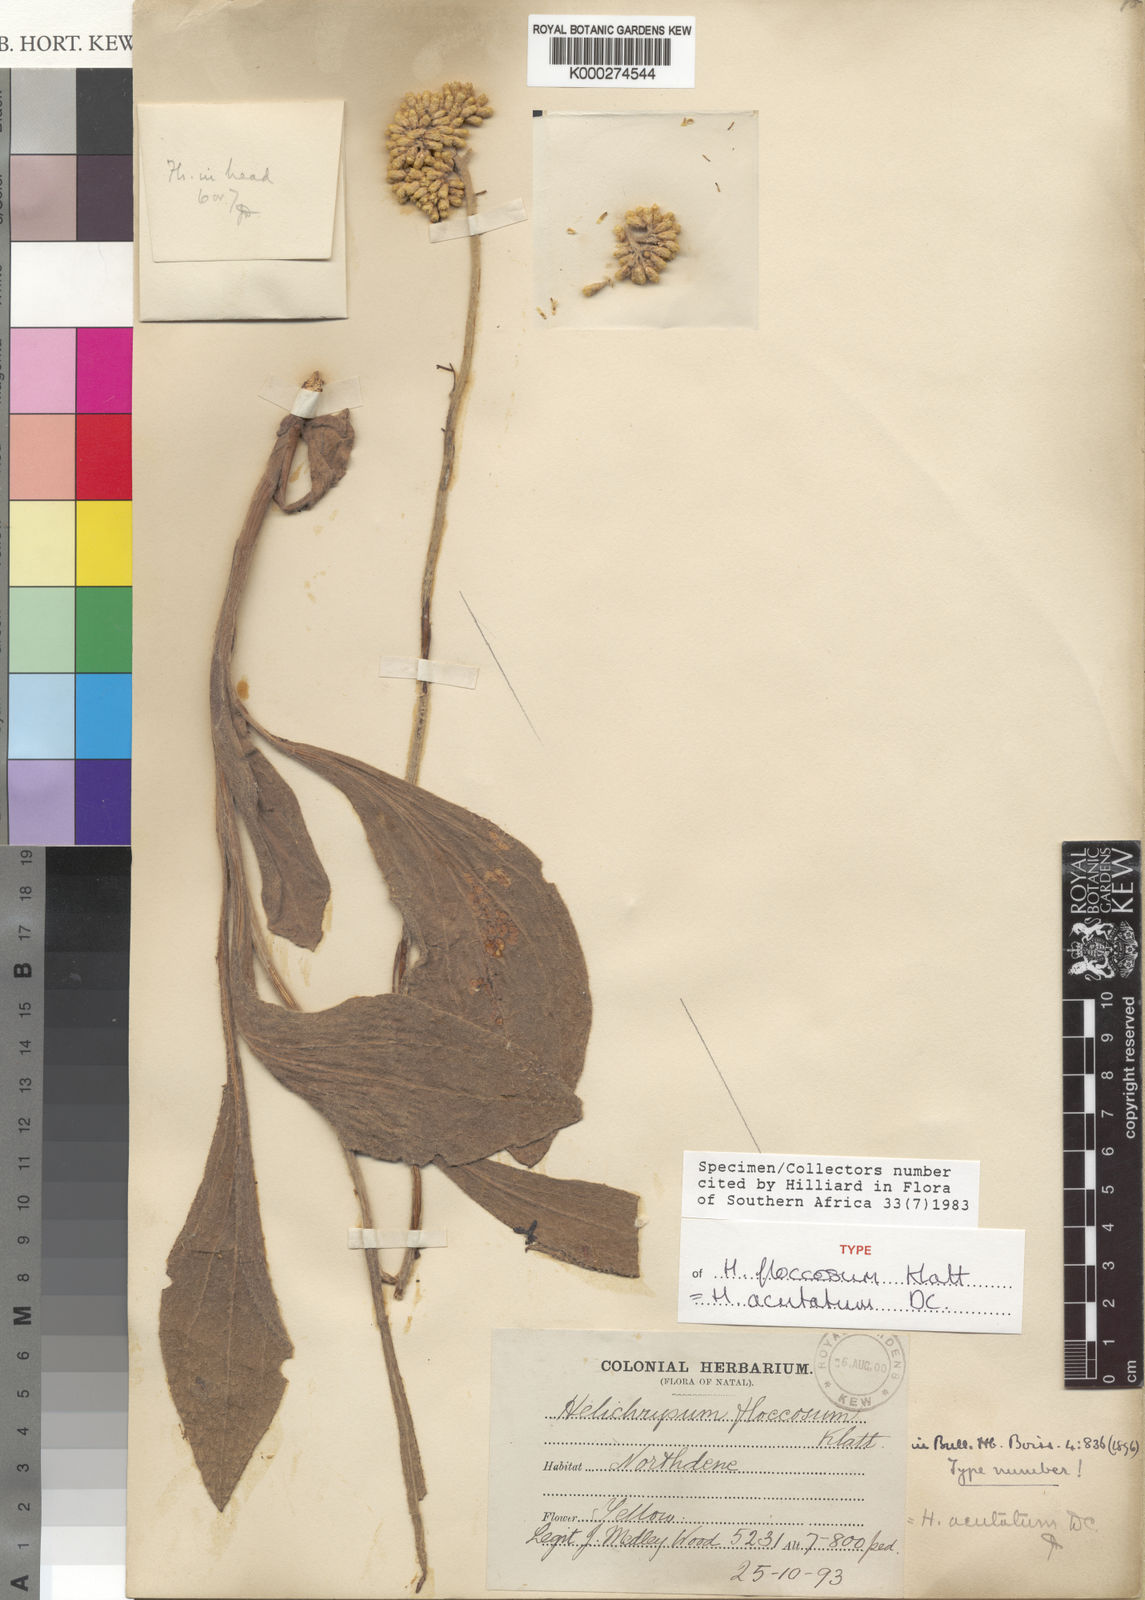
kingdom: Plantae
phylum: Tracheophyta
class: Magnoliopsida
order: Asterales
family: Asteraceae
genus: Helichrysum
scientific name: Helichrysum acutatum
